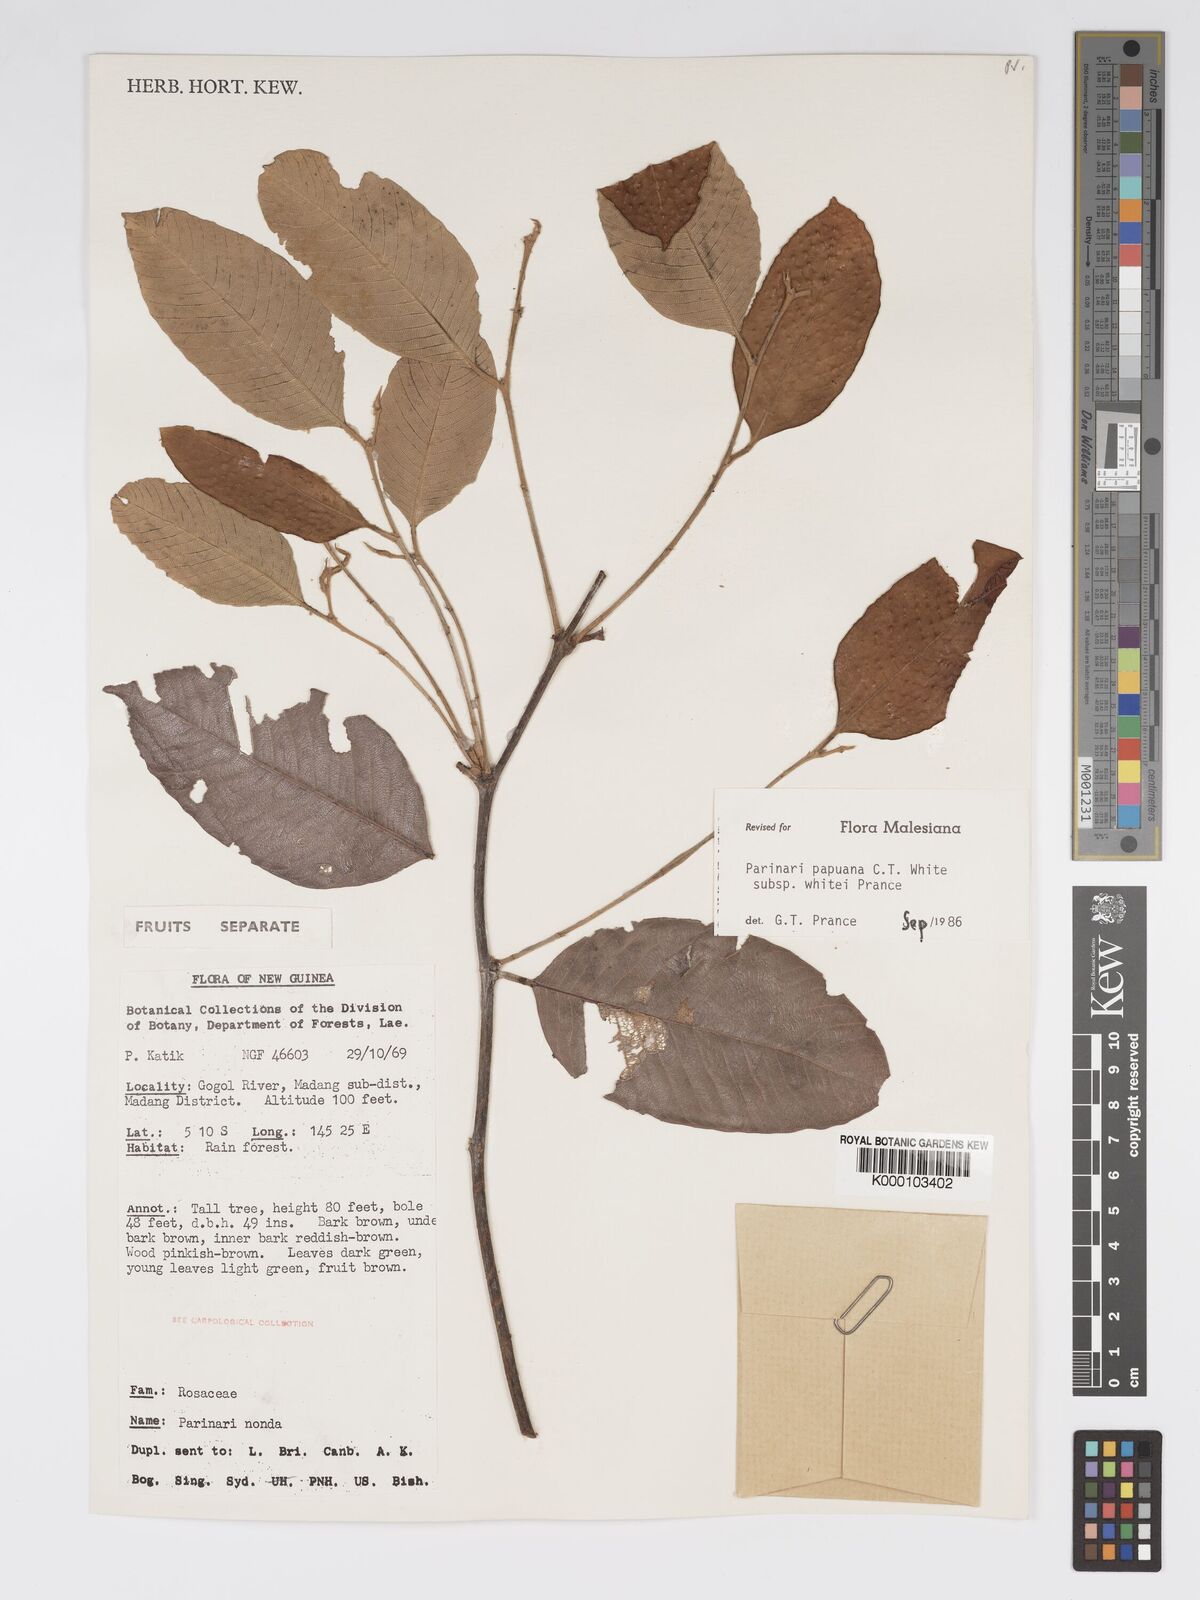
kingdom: Plantae
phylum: Tracheophyta
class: Magnoliopsida
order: Malpighiales
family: Chrysobalanaceae
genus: Parinari
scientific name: Parinari papuana
